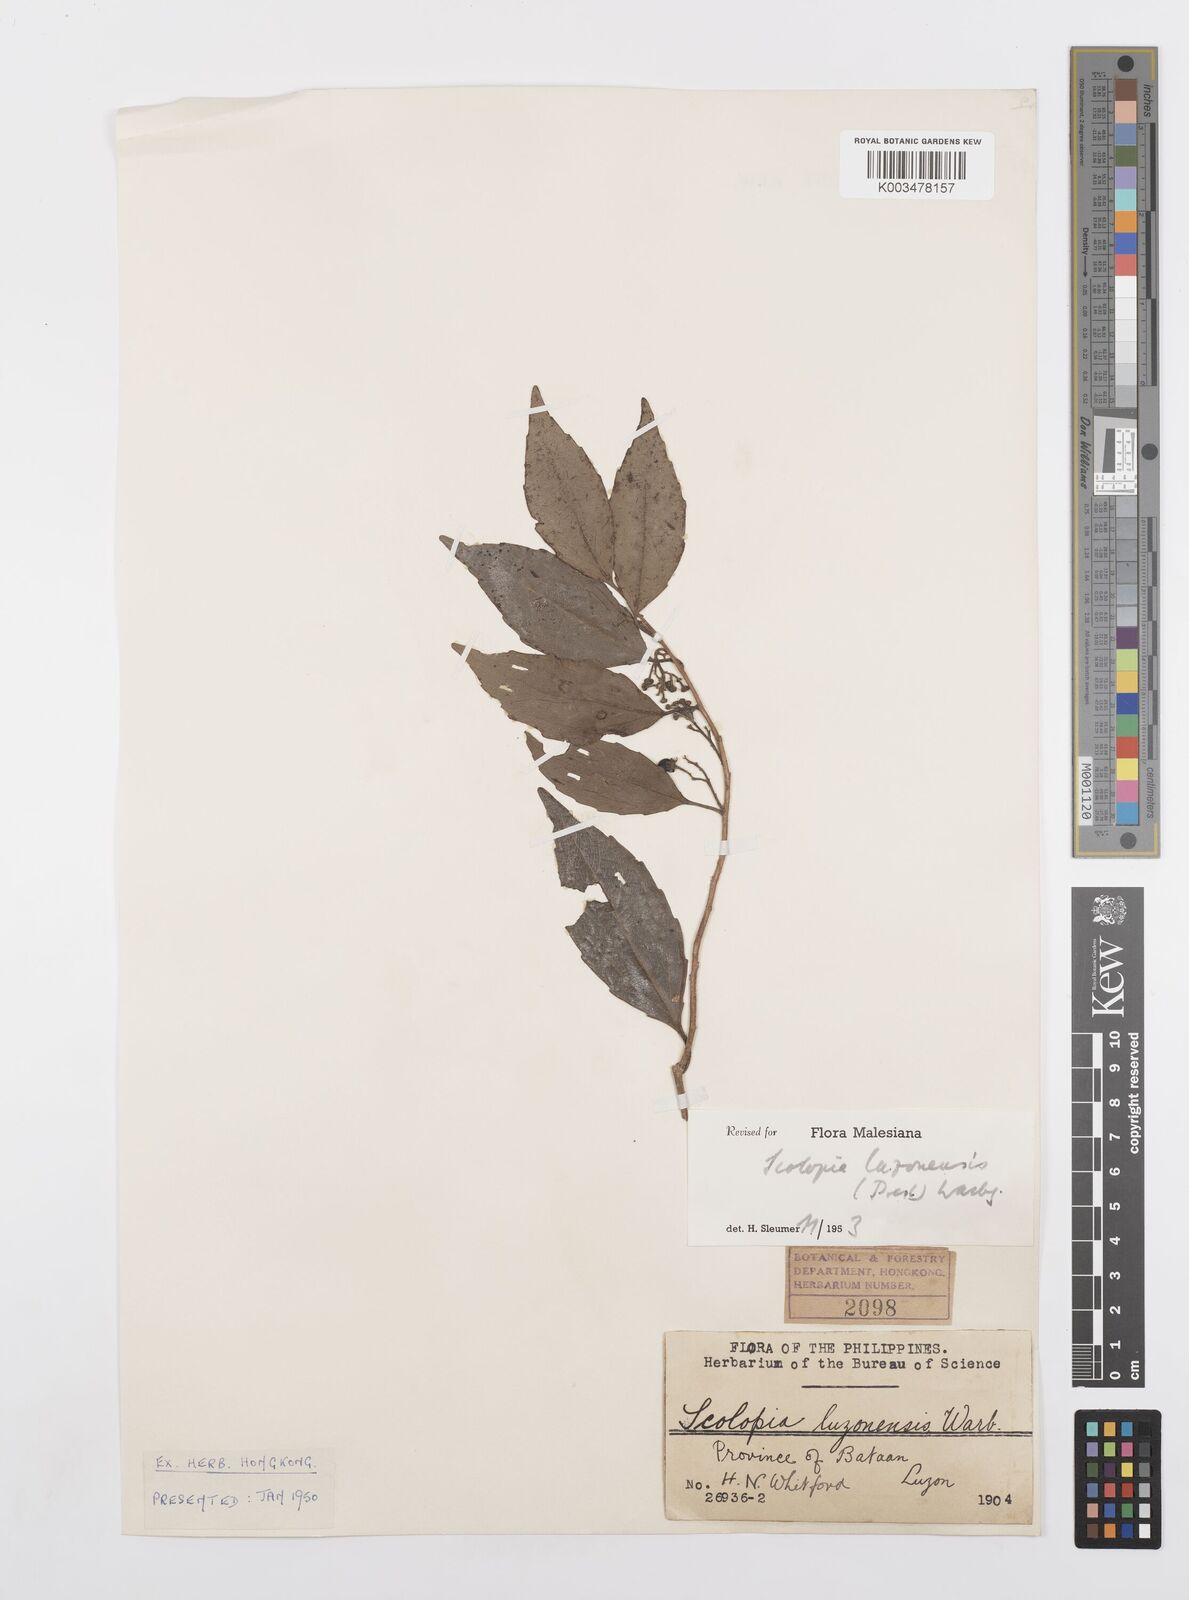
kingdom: Plantae
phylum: Tracheophyta
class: Magnoliopsida
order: Malpighiales
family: Salicaceae
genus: Scolopia
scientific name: Scolopia luzonensis
